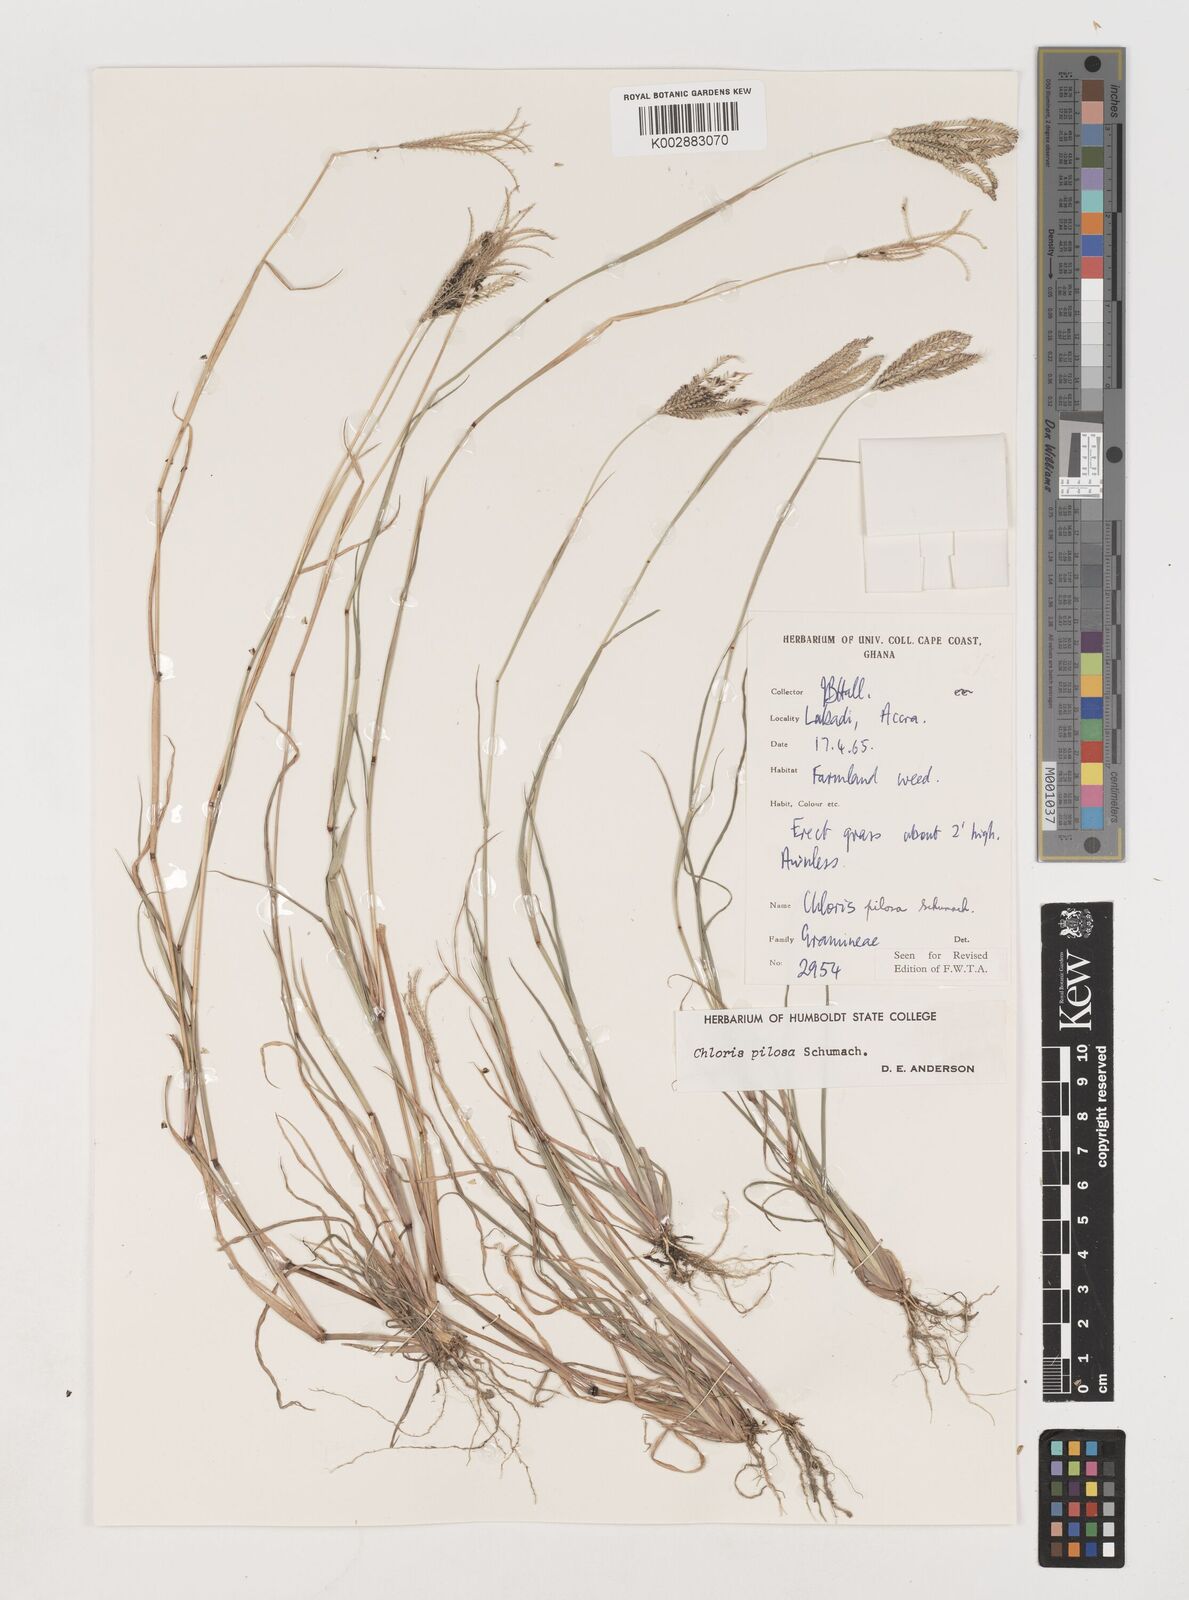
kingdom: Plantae
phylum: Tracheophyta
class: Liliopsida
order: Poales
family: Poaceae
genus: Chloris
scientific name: Chloris pilosa
